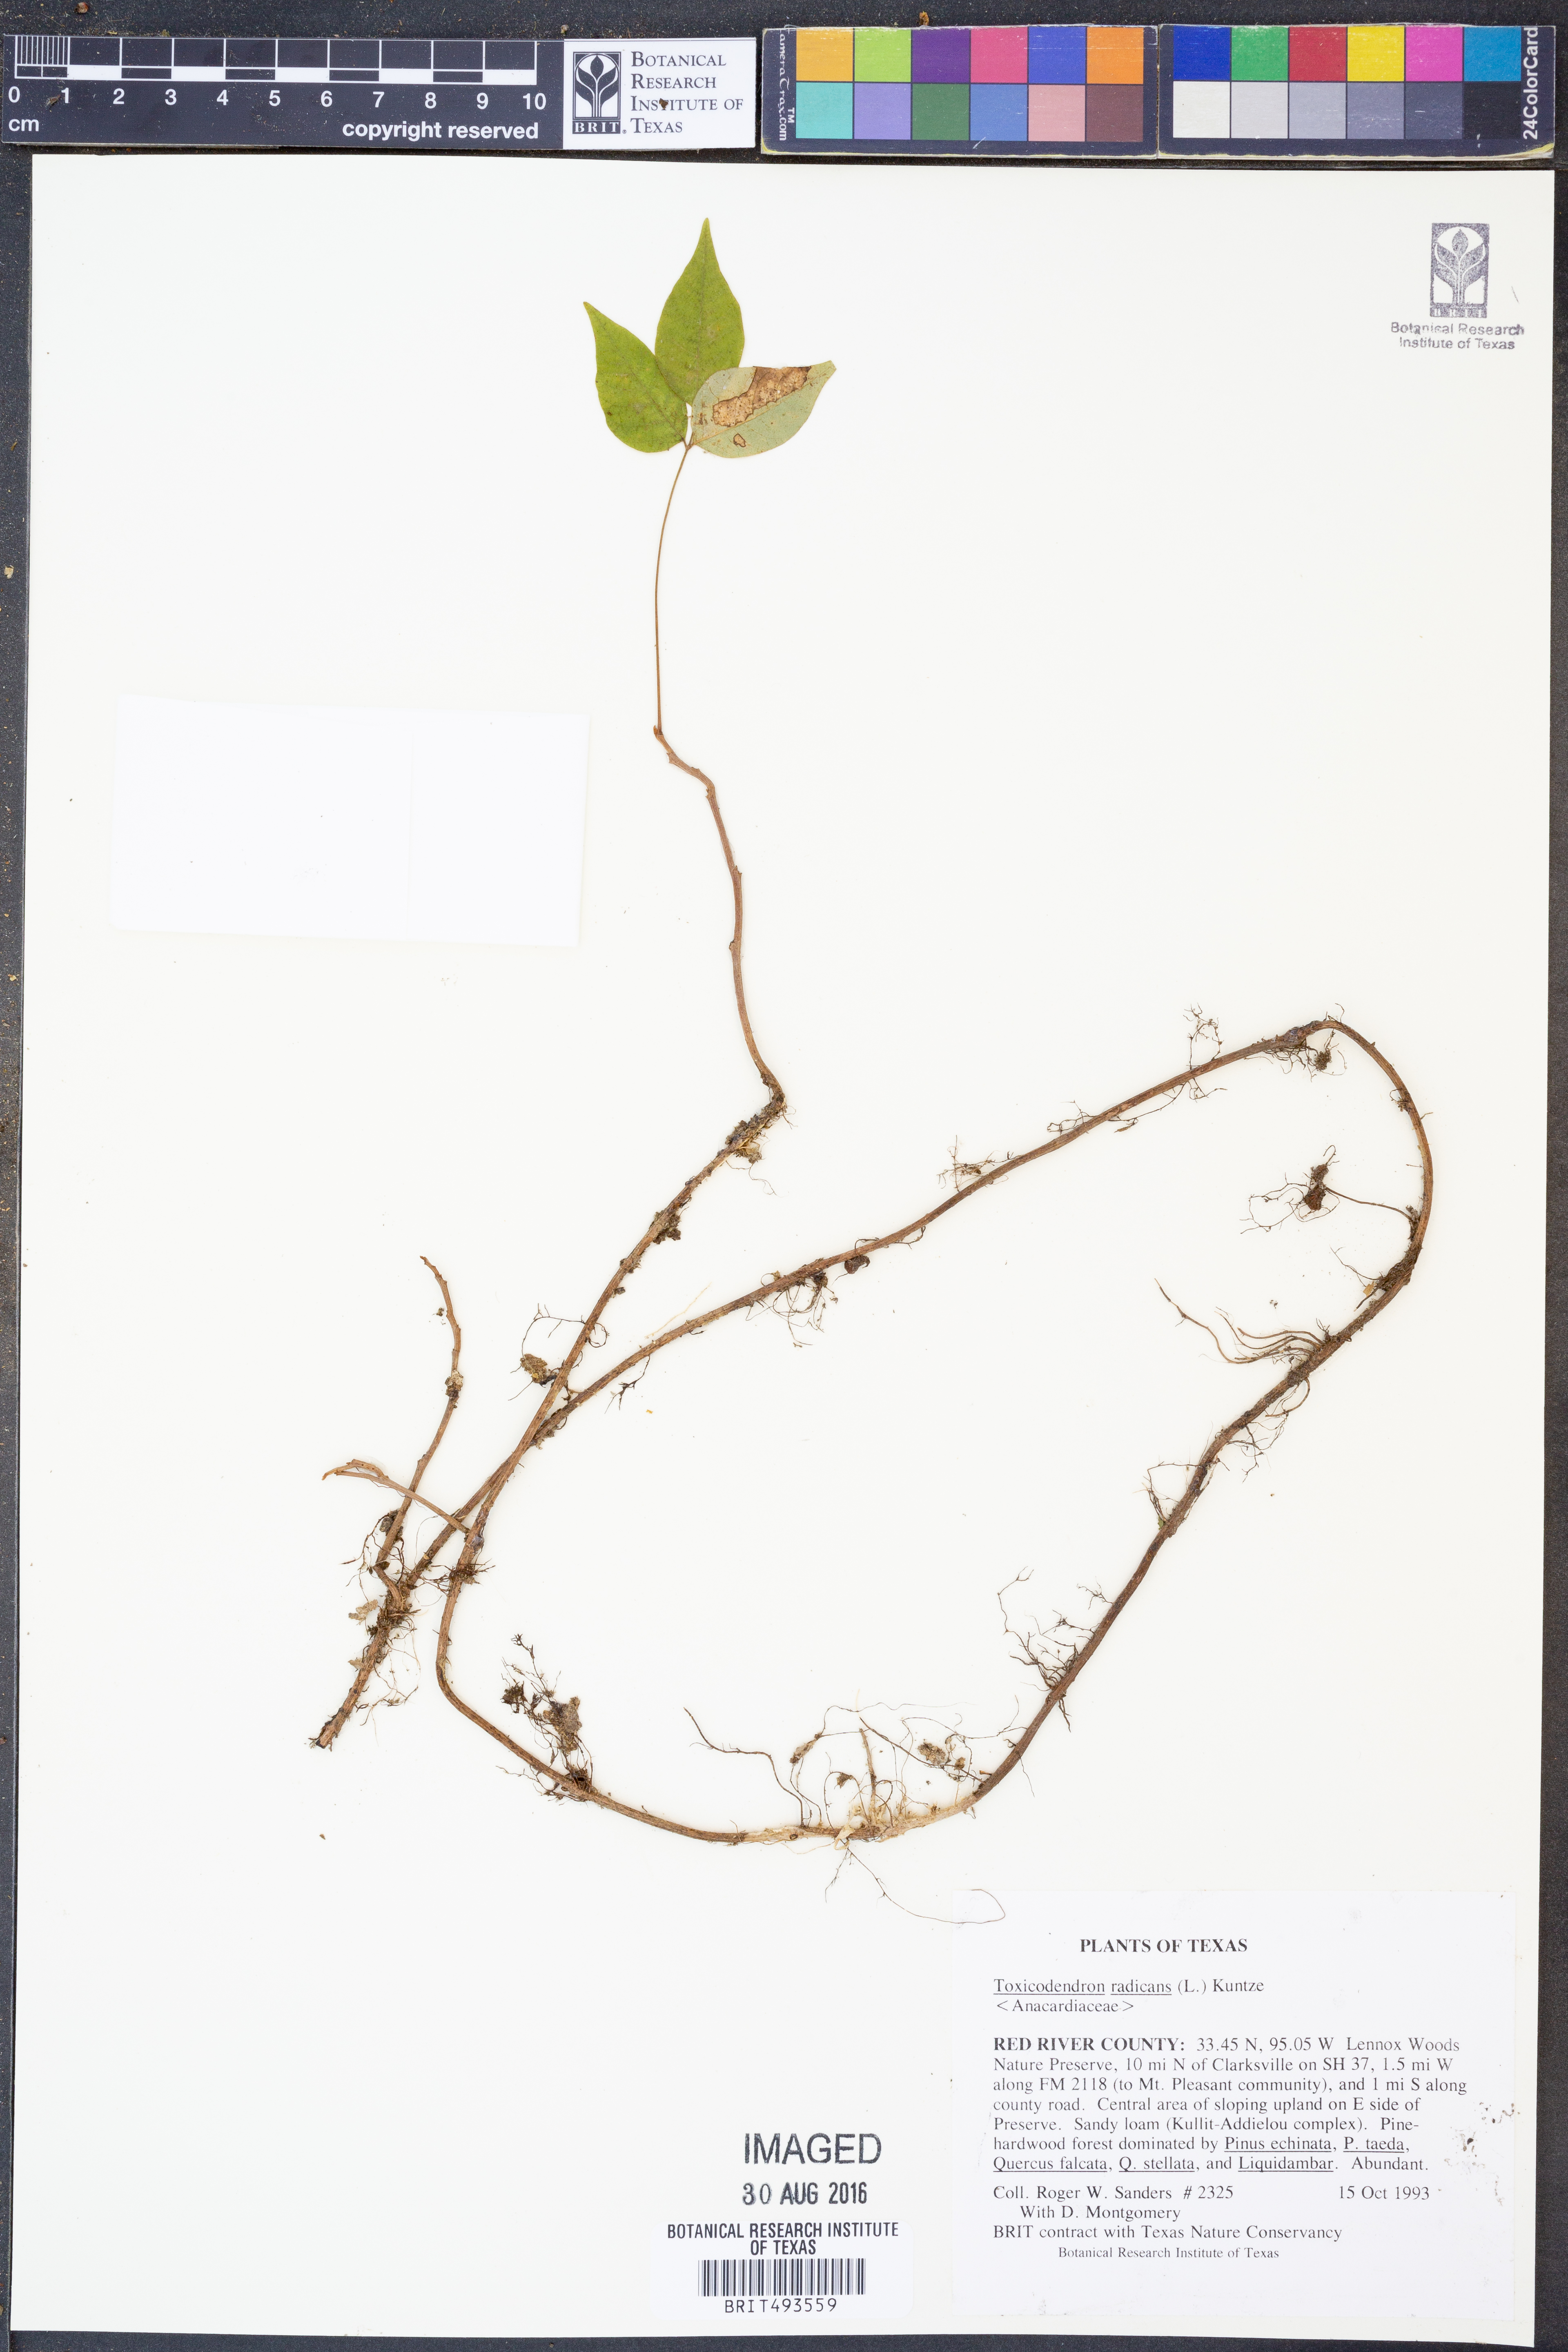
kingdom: Plantae
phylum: Tracheophyta
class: Magnoliopsida
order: Sapindales
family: Anacardiaceae
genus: Toxicodendron
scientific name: Toxicodendron radicans
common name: Poison ivy
